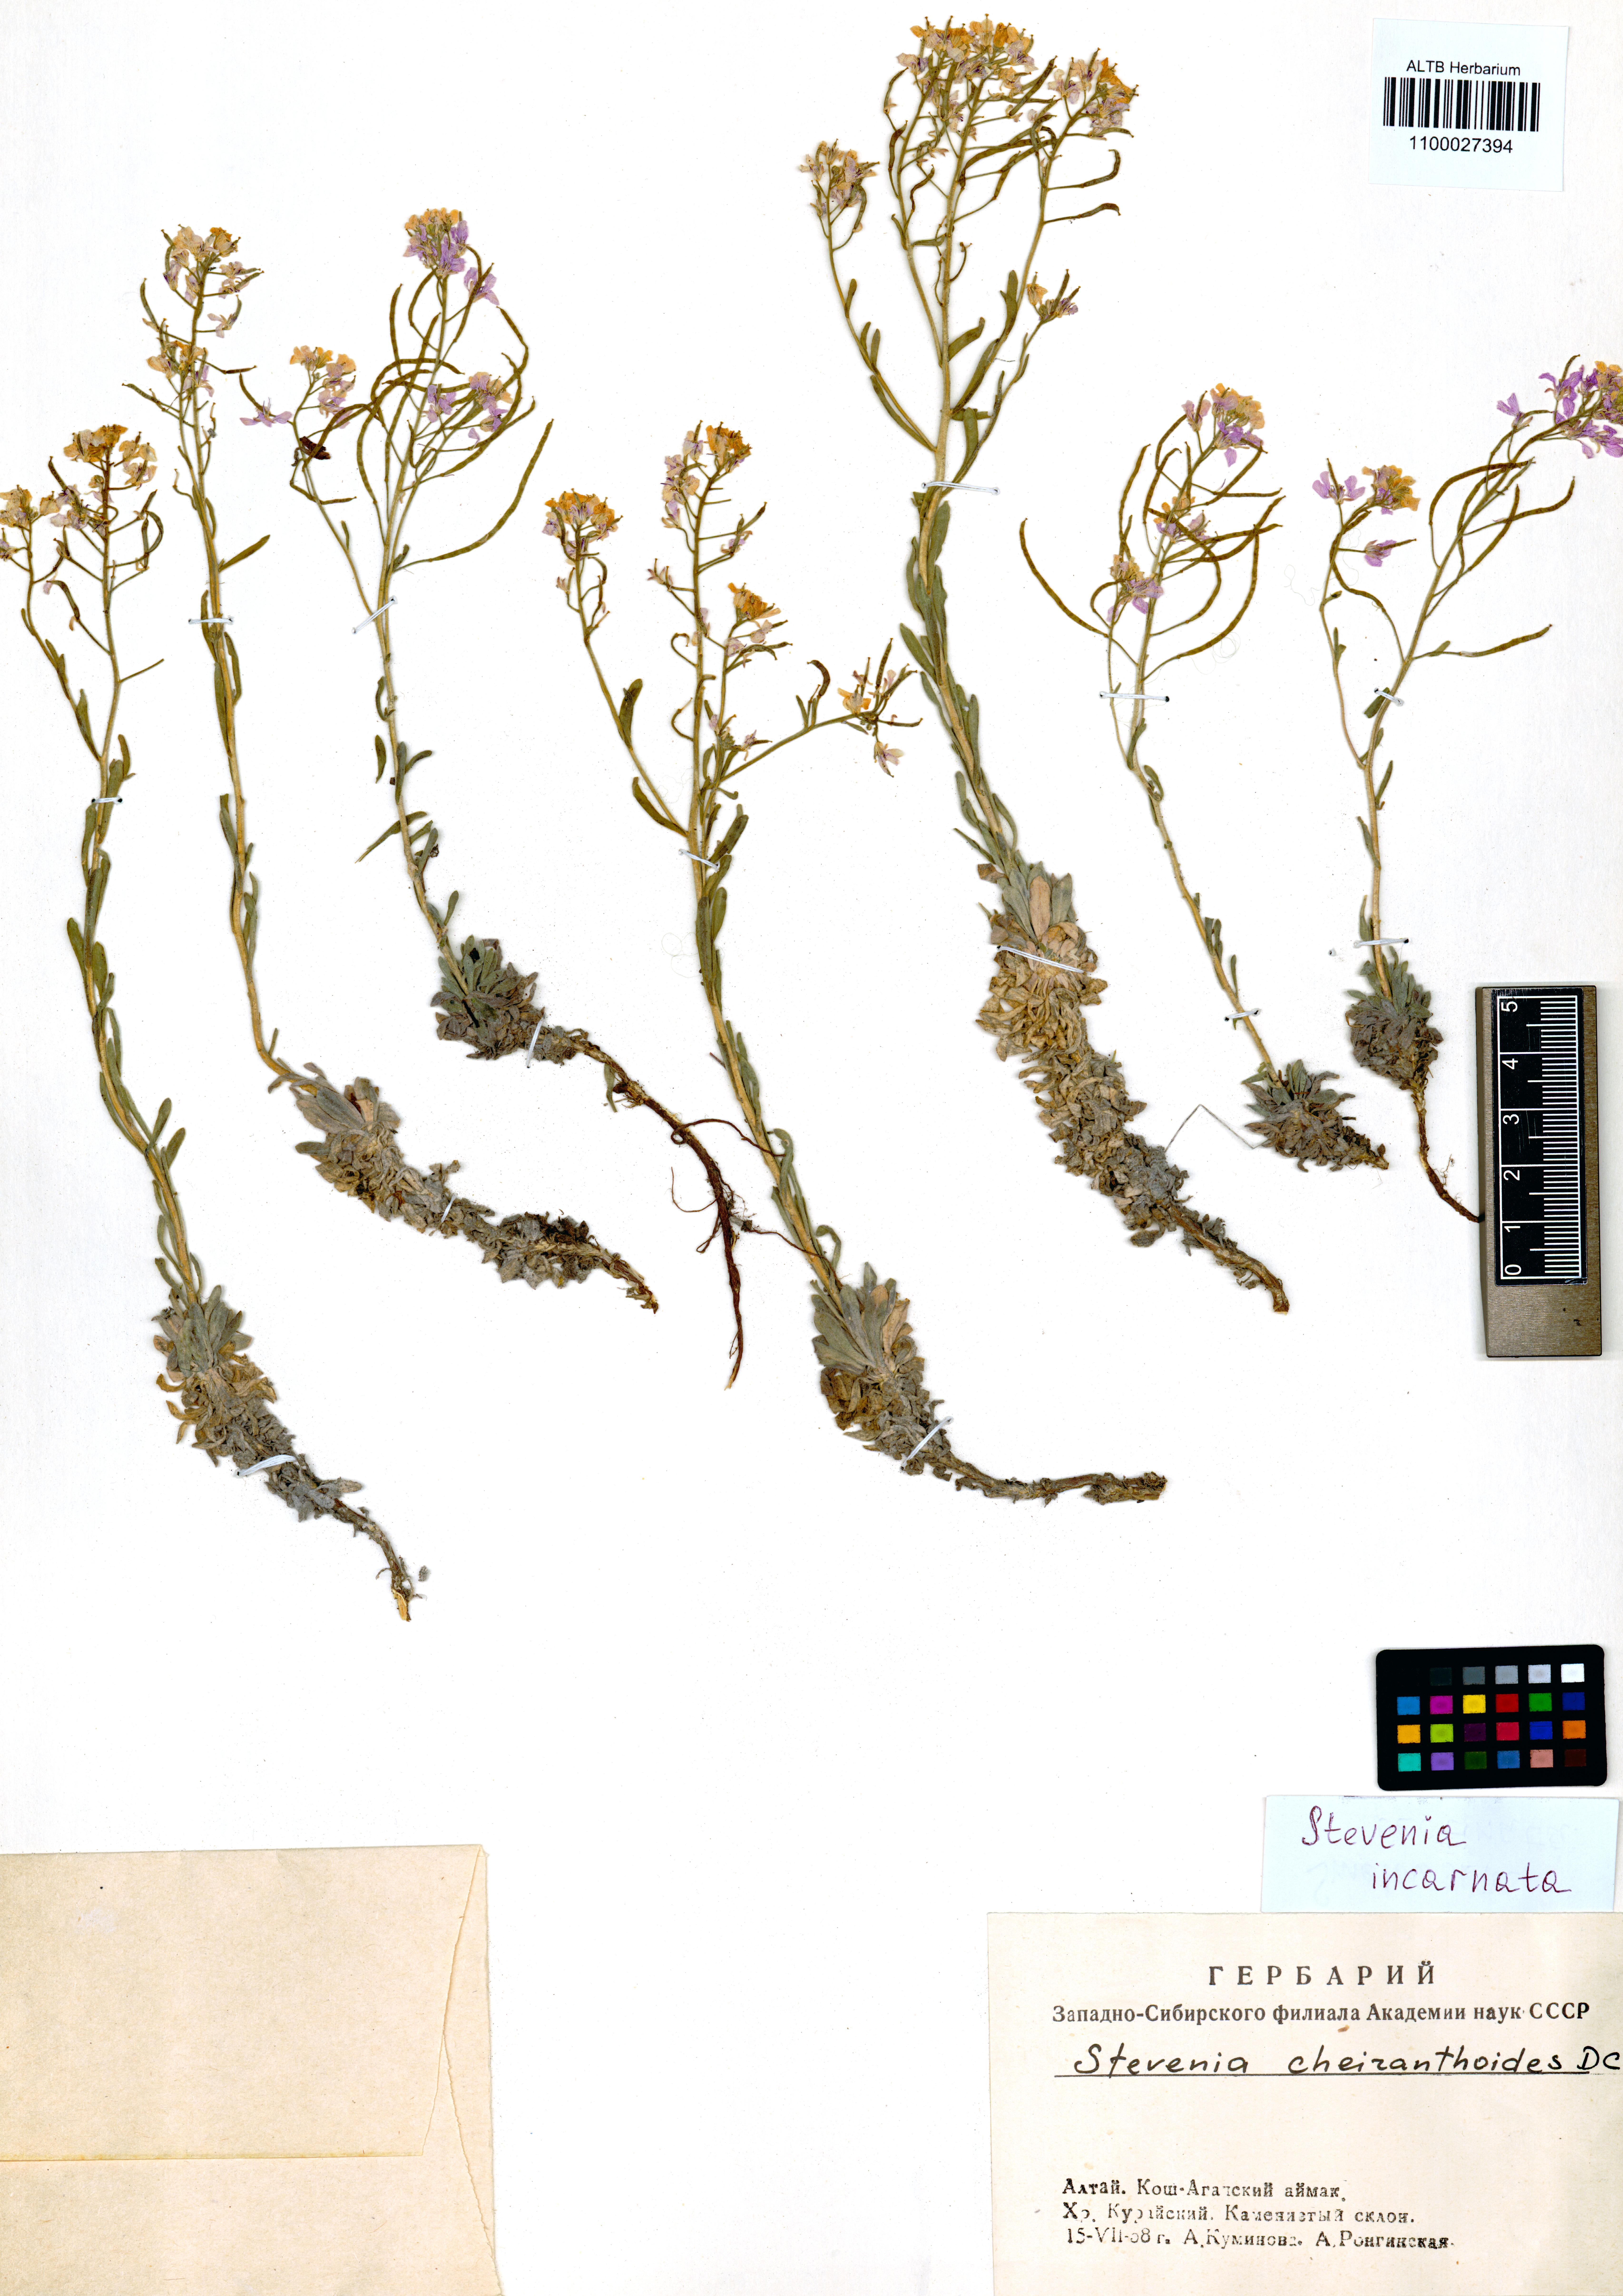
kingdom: Plantae
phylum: Tracheophyta
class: Magnoliopsida
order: Brassicales
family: Brassicaceae
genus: Stevenia
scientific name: Stevenia incarnata
